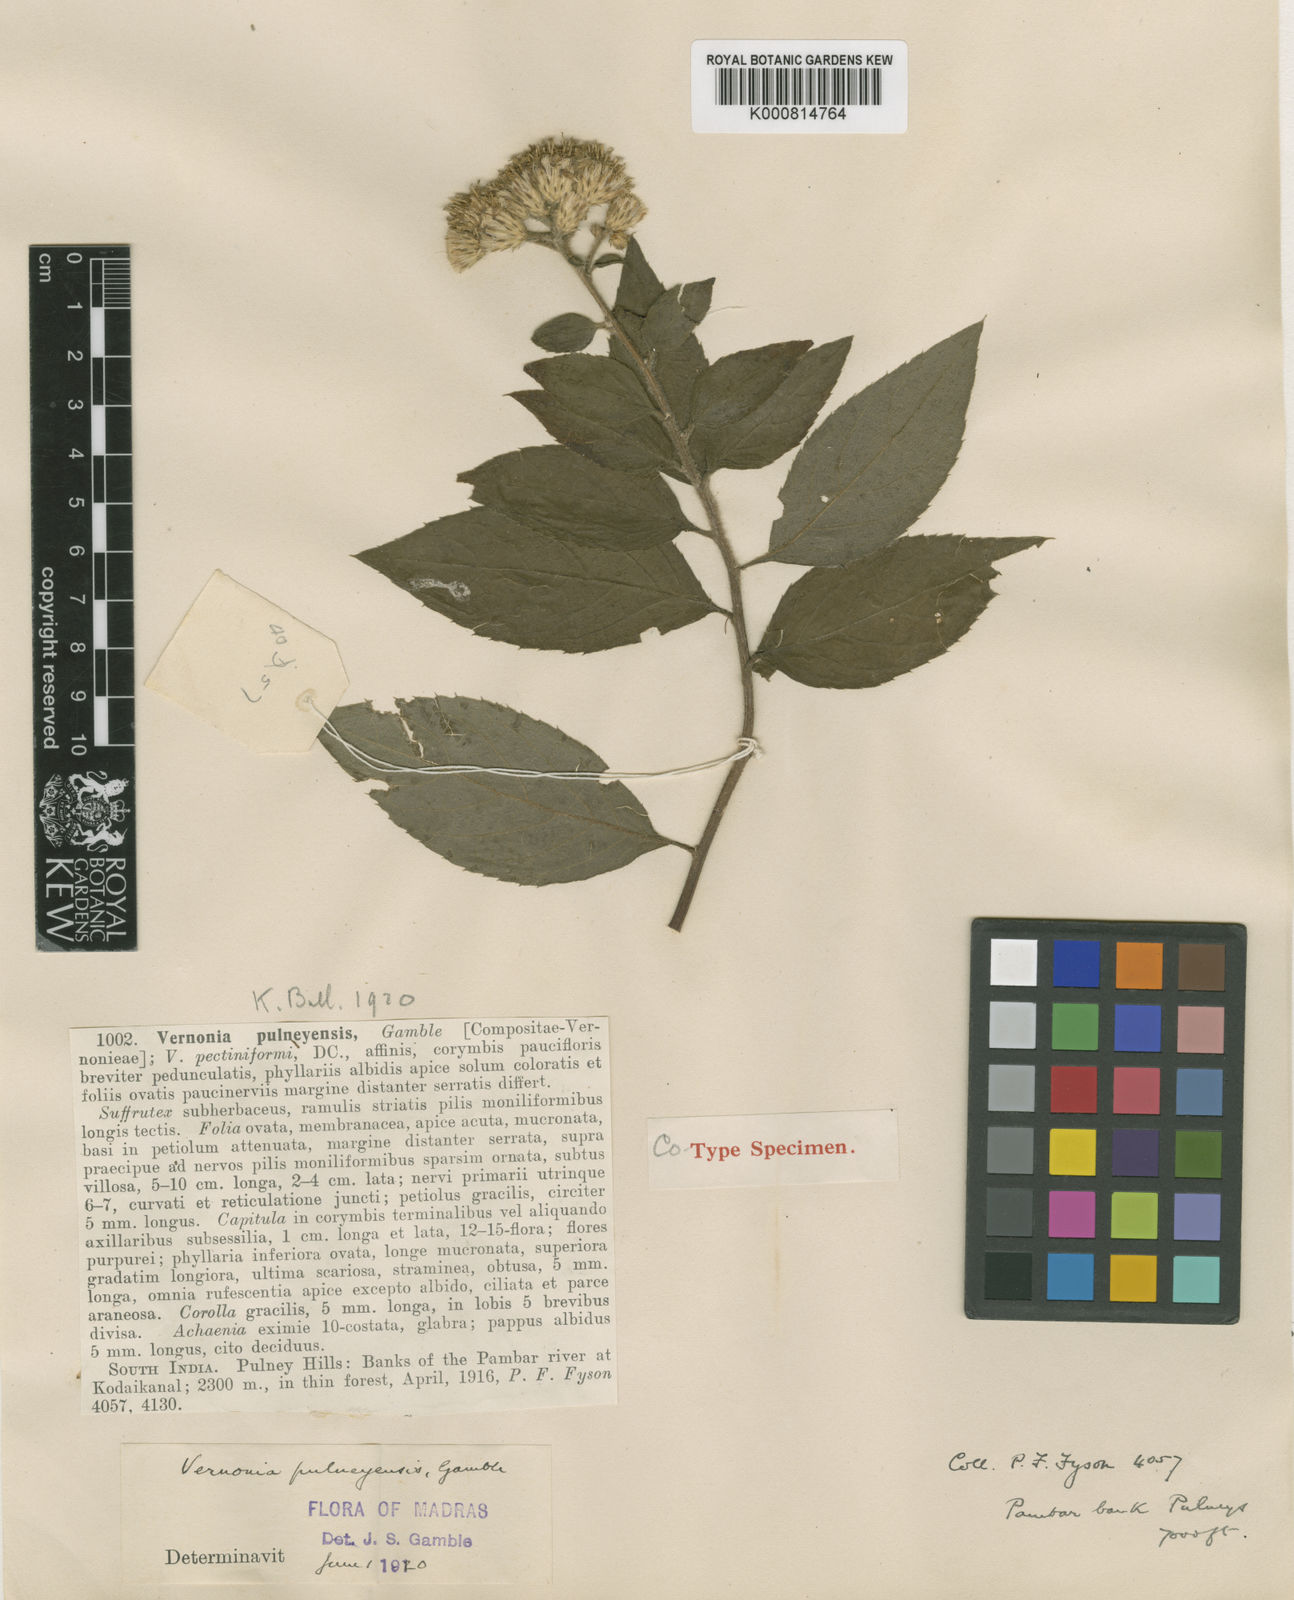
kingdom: Plantae
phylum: Tracheophyta
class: Magnoliopsida
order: Asterales
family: Asteraceae
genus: Vernonia
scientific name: Vernonia
